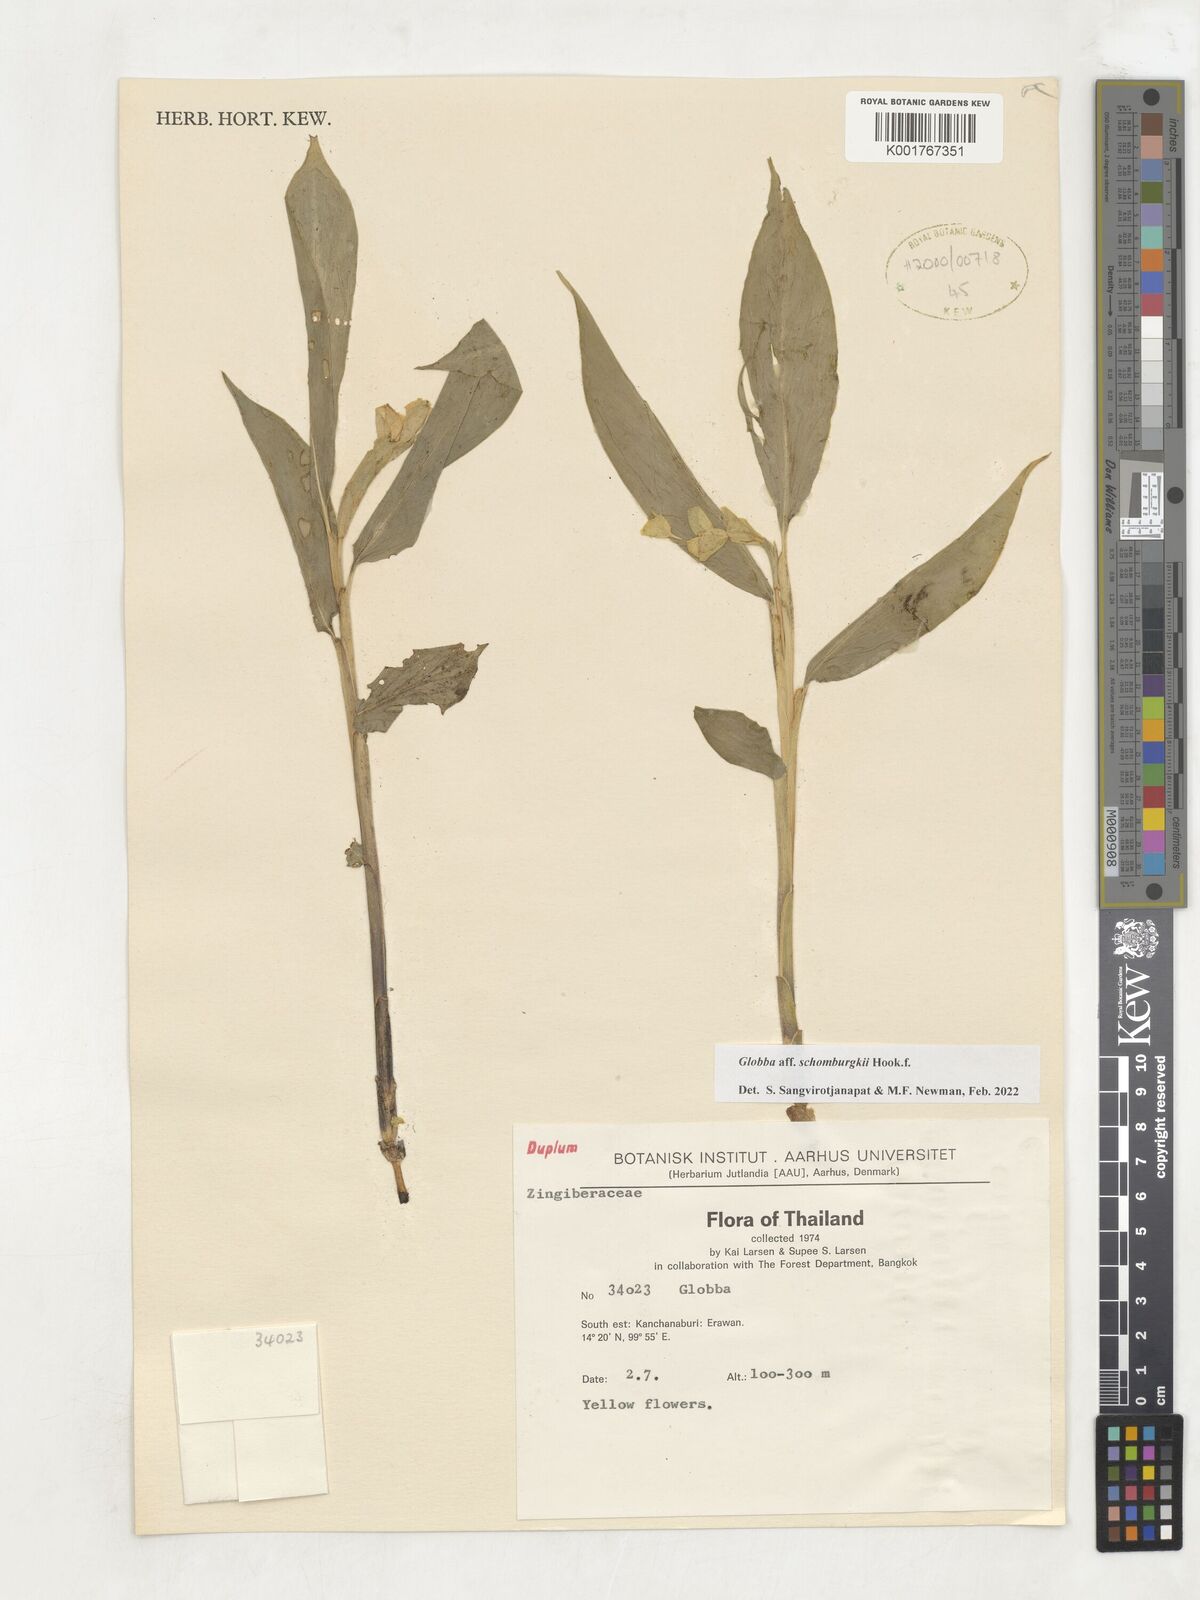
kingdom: Plantae
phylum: Tracheophyta
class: Liliopsida
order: Zingiberales
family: Zingiberaceae
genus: Globba
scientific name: Globba schomburgkii
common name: Dancing girl ginger
